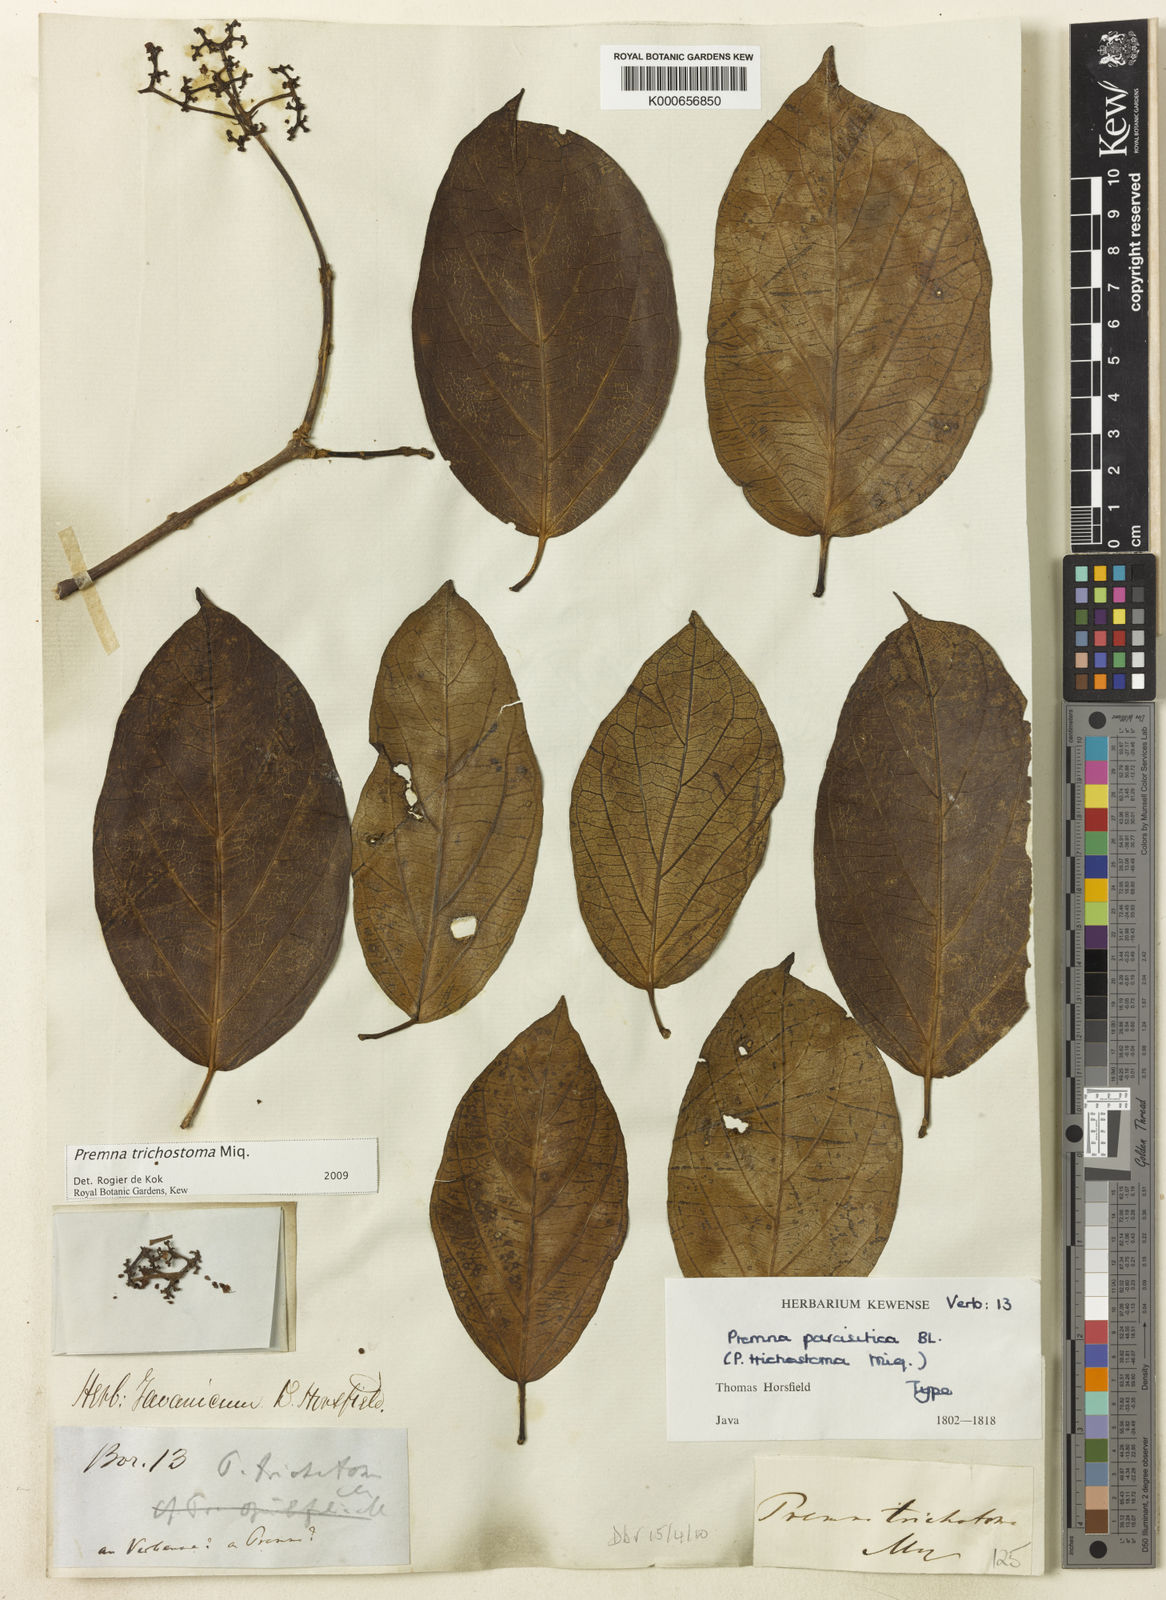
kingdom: Plantae
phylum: Tracheophyta
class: Magnoliopsida
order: Lamiales
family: Lamiaceae
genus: Premna
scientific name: Premna trichostoma
